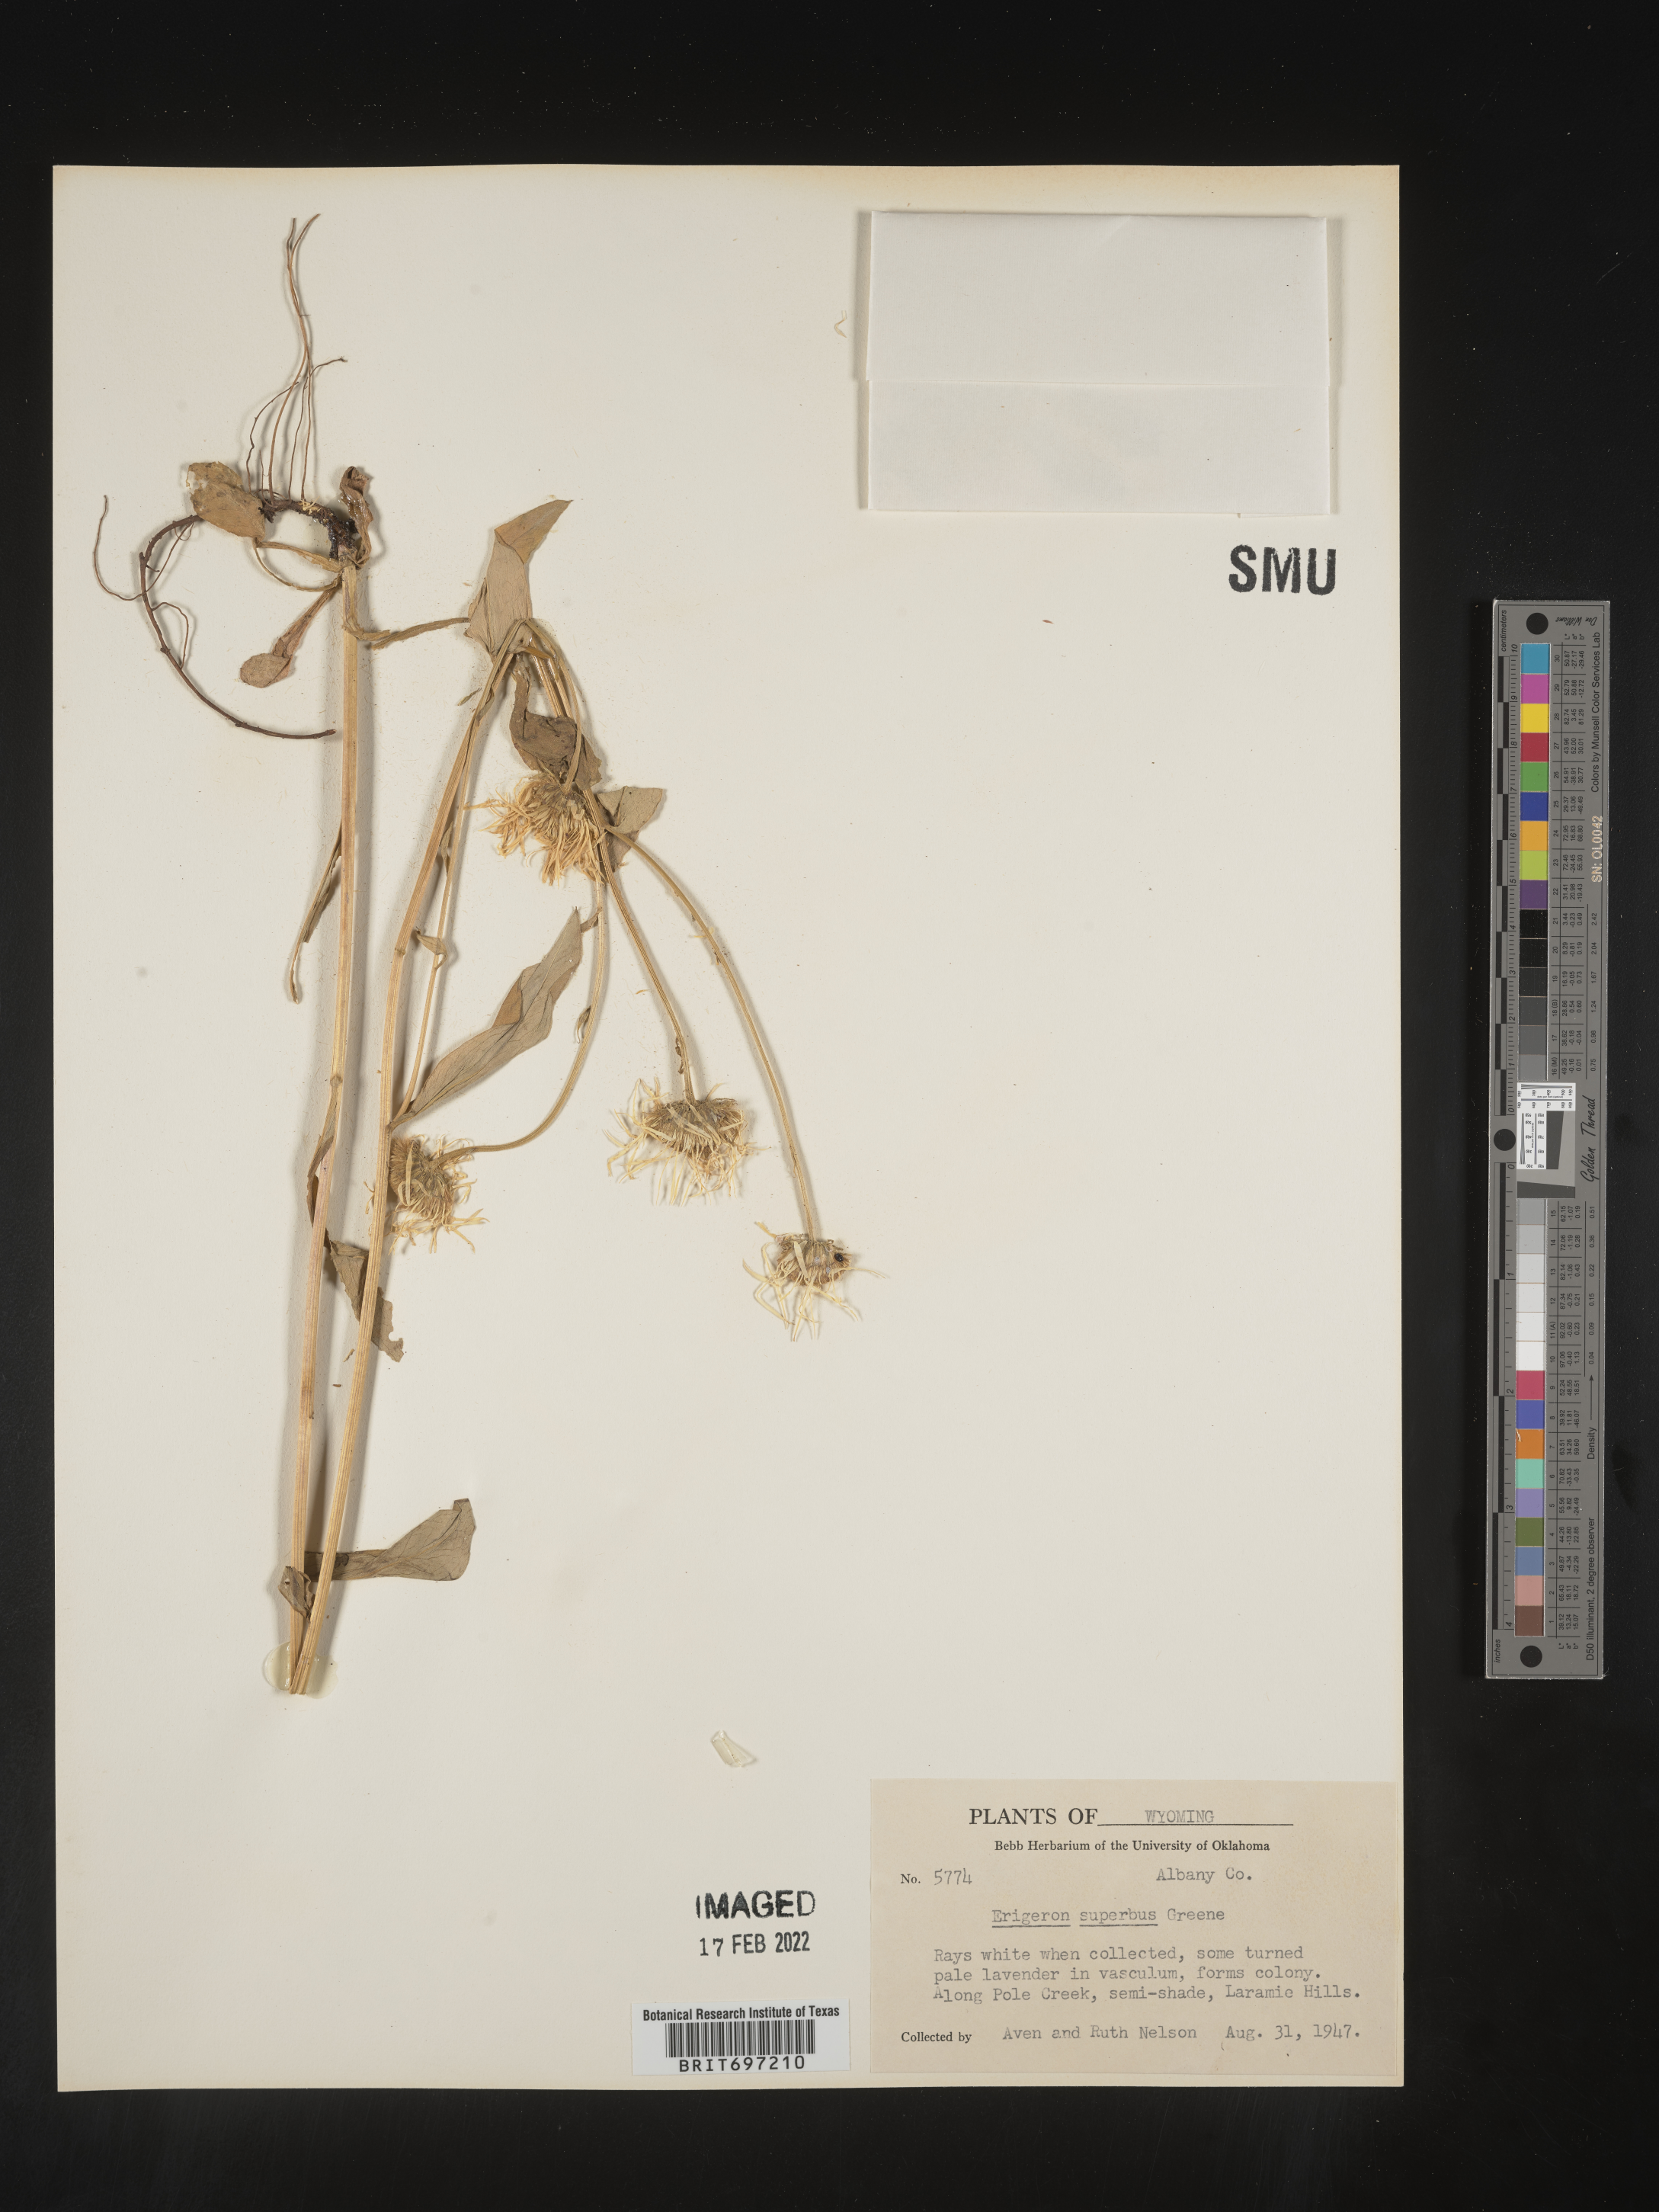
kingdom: Plantae
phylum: Tracheophyta
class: Magnoliopsida
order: Asterales
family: Asteraceae
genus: Erigeron
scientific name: Erigeron eximius
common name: Spruce-fir fleabane
